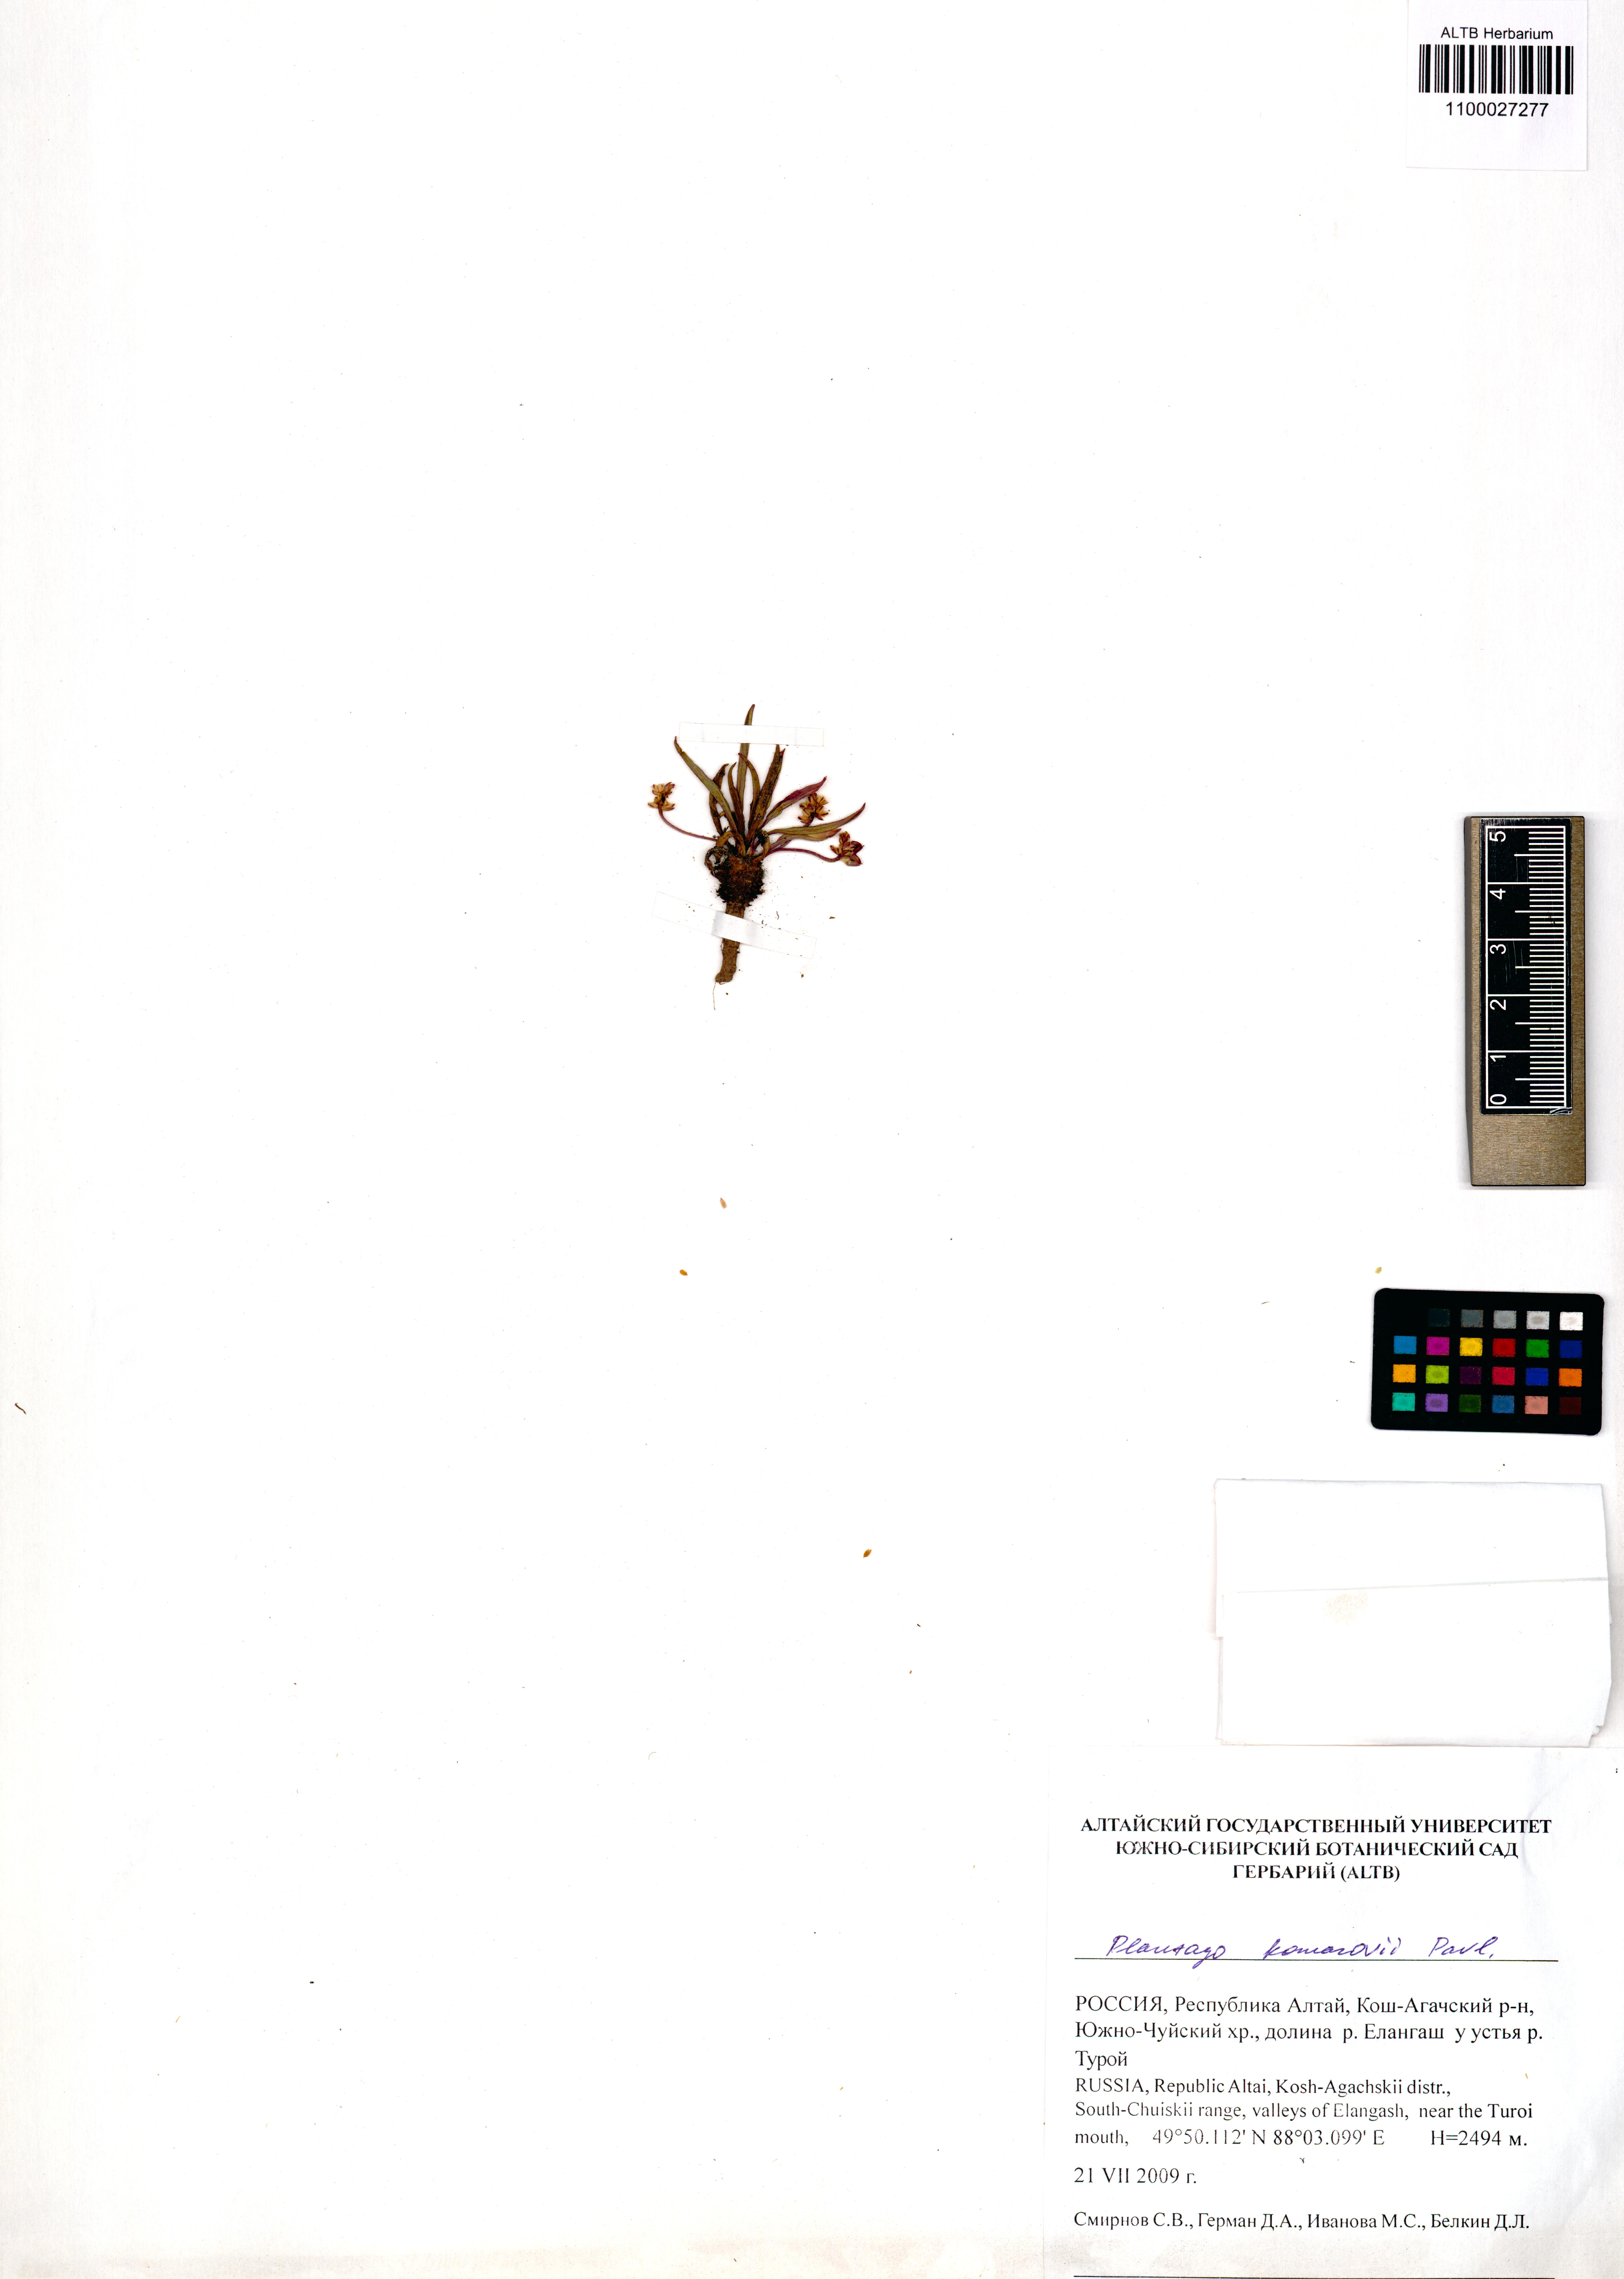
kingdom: Plantae
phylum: Tracheophyta
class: Magnoliopsida
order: Lamiales
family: Plantaginaceae
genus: Plantago
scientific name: Plantago komarovii
